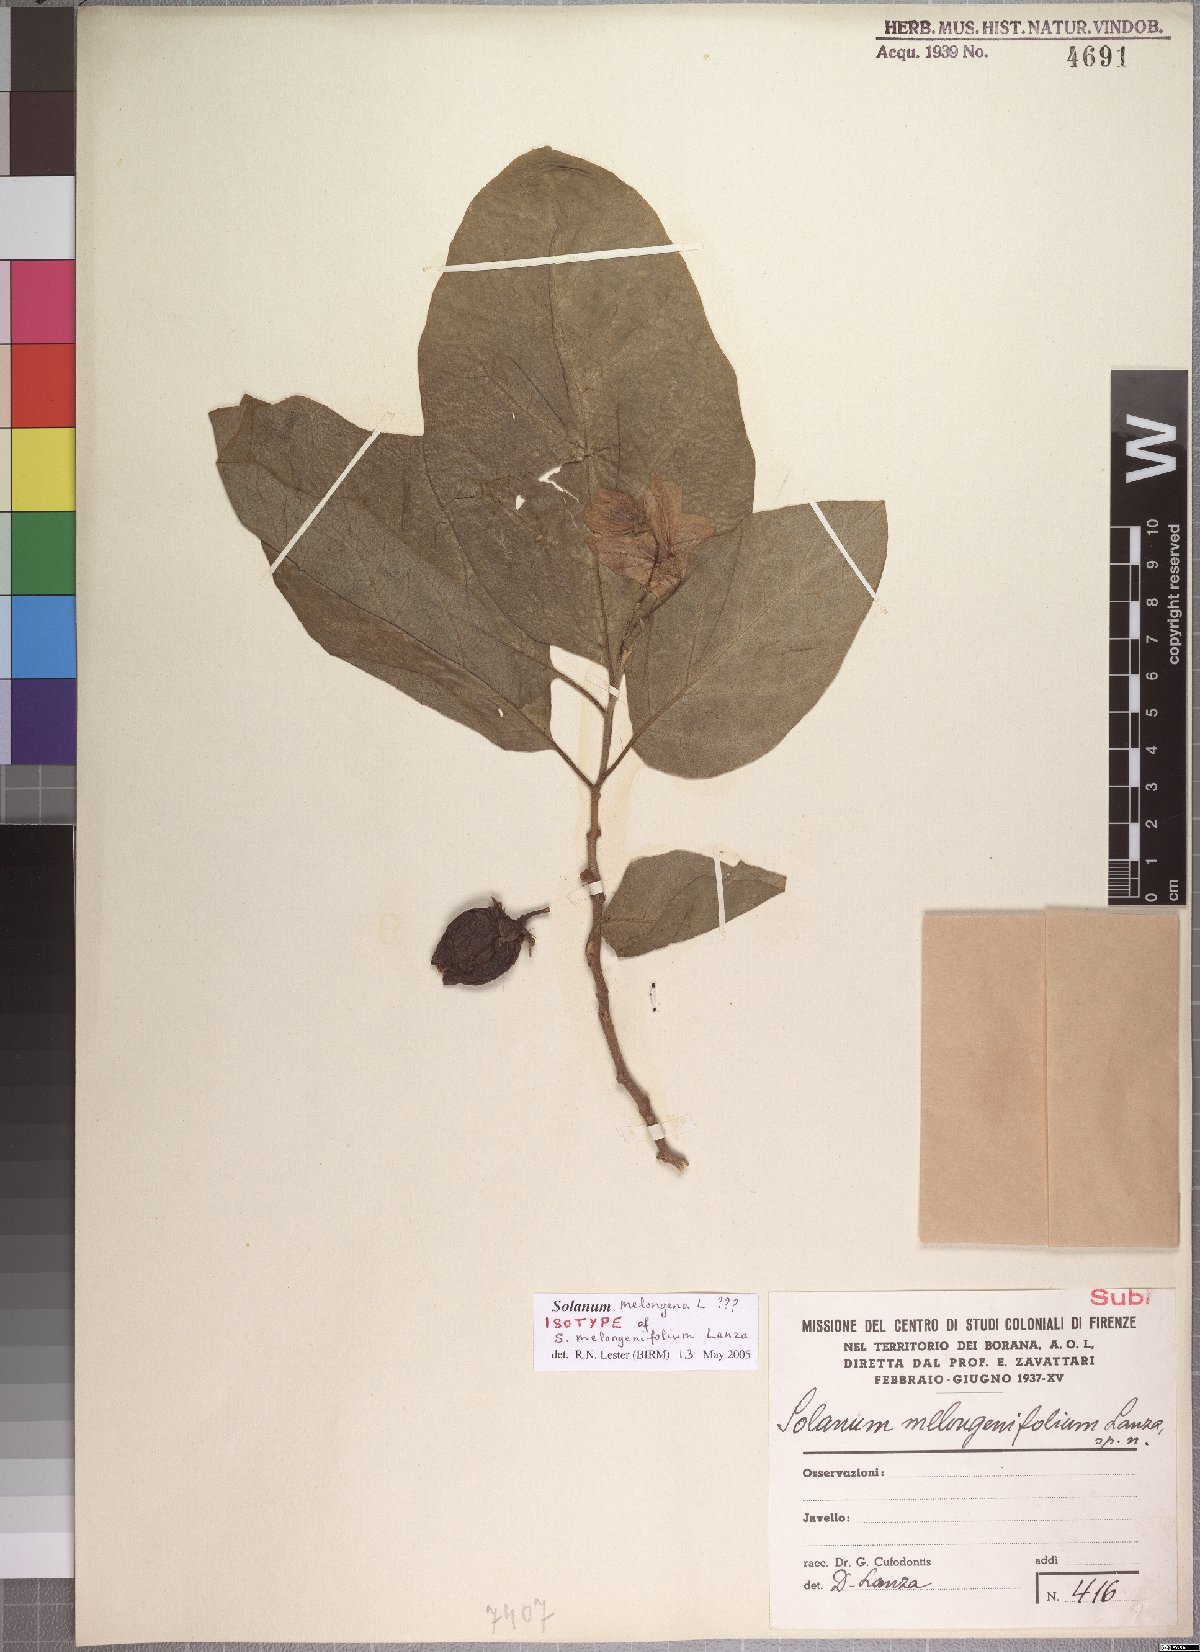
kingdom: Plantae
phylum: Tracheophyta
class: Magnoliopsida
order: Solanales
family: Solanaceae
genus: Solanum
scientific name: Solanum campylacanthum
